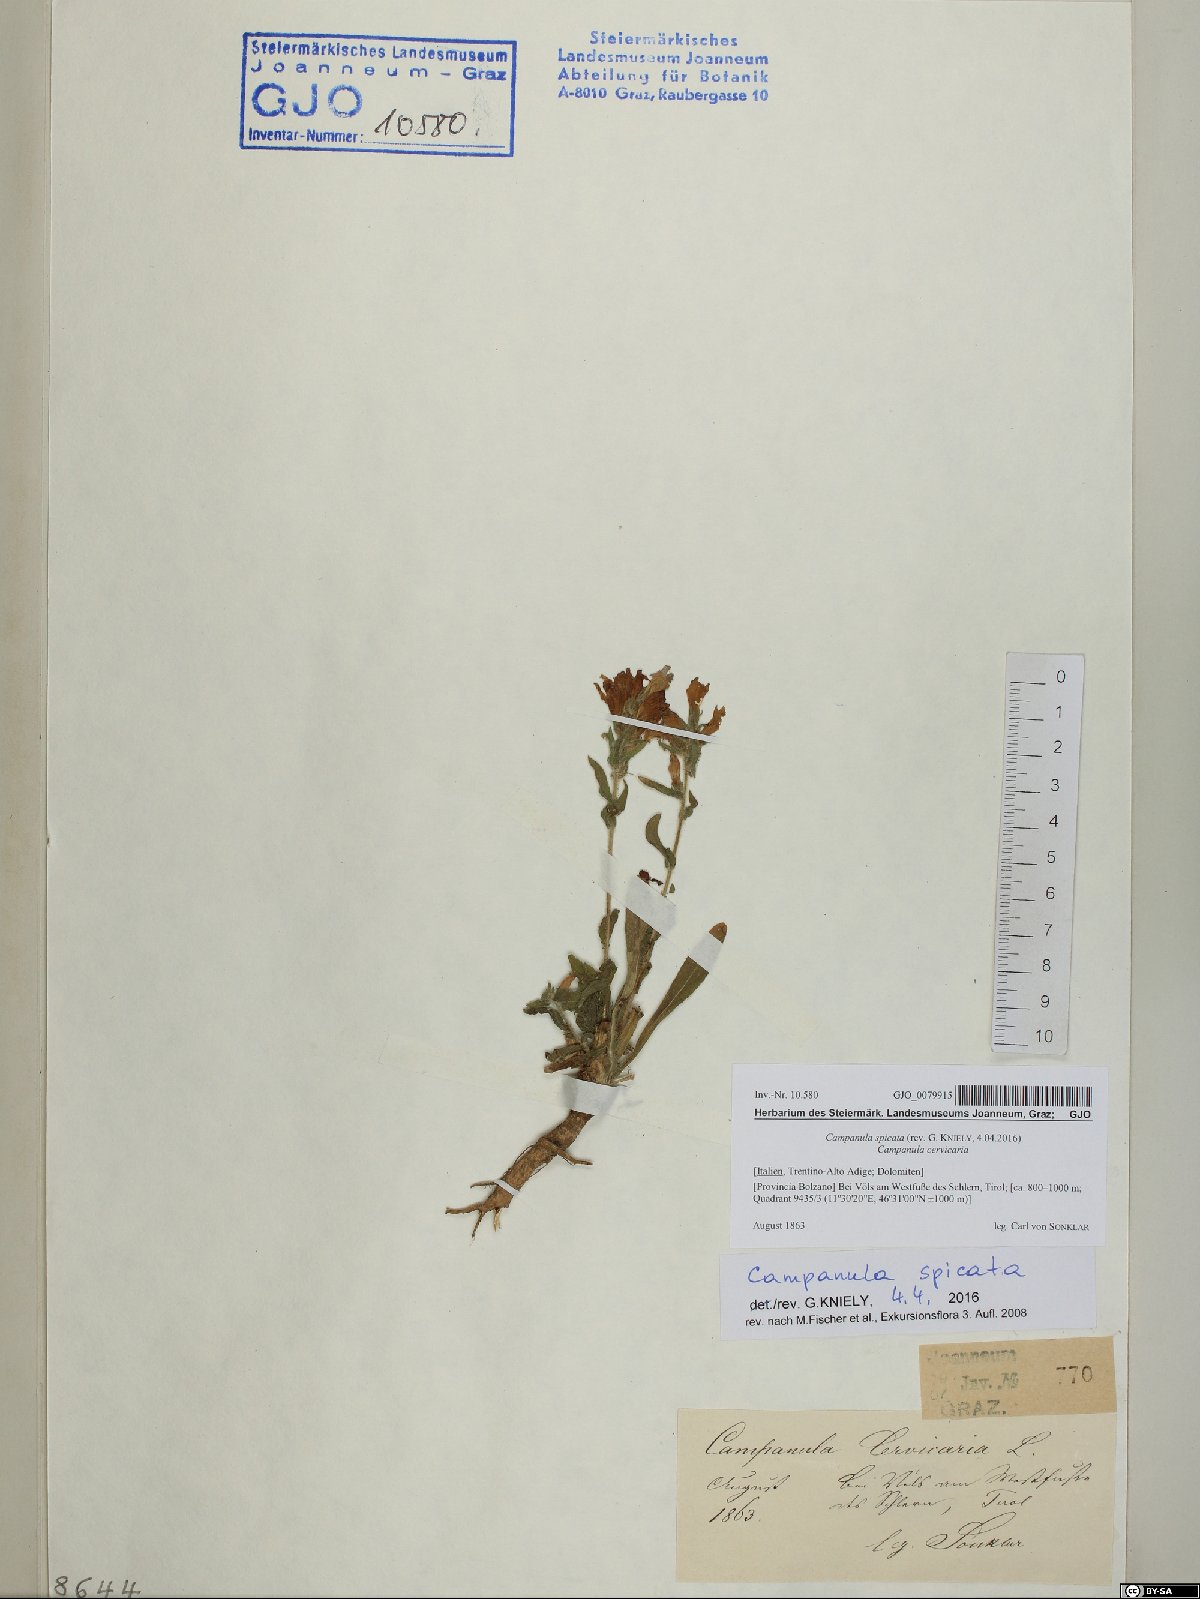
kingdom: Plantae
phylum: Tracheophyta
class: Magnoliopsida
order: Asterales
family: Campanulaceae
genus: Campanula
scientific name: Campanula spicata
